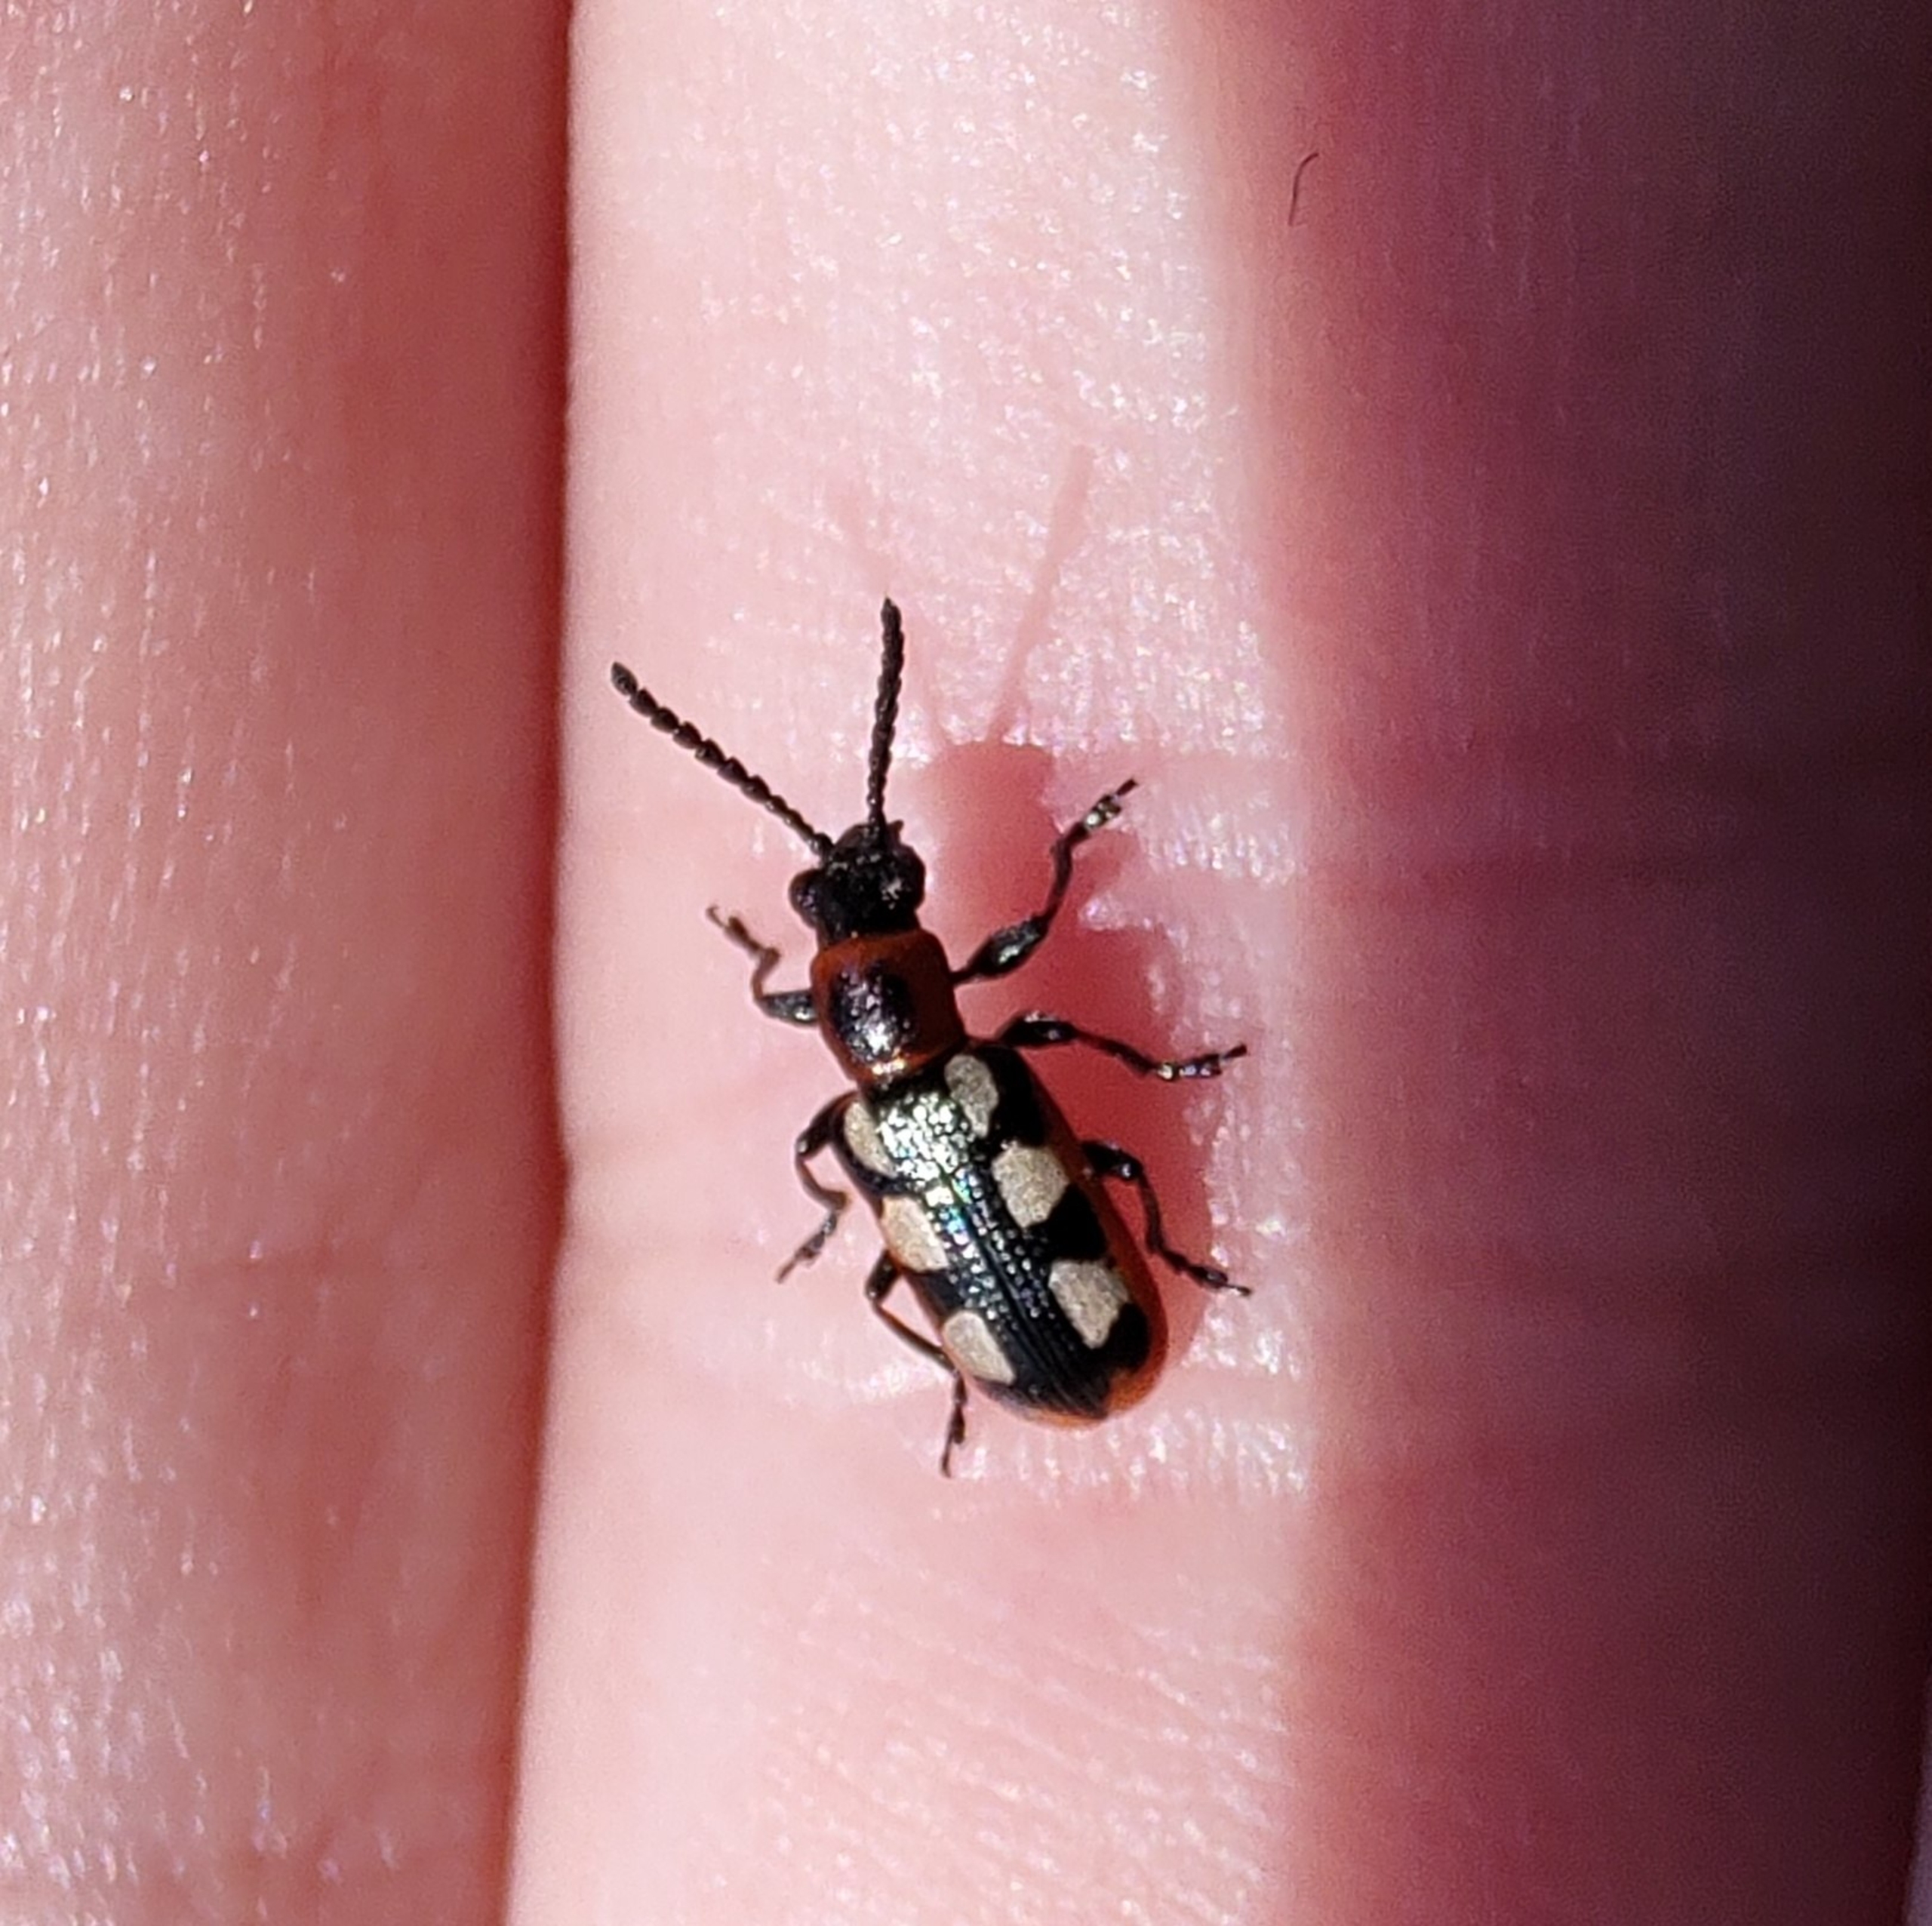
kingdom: Animalia
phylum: Arthropoda
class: Insecta
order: Coleoptera
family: Chrysomelidae
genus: Crioceris
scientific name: Crioceris asparagi
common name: Gulplettet aspargesbille
